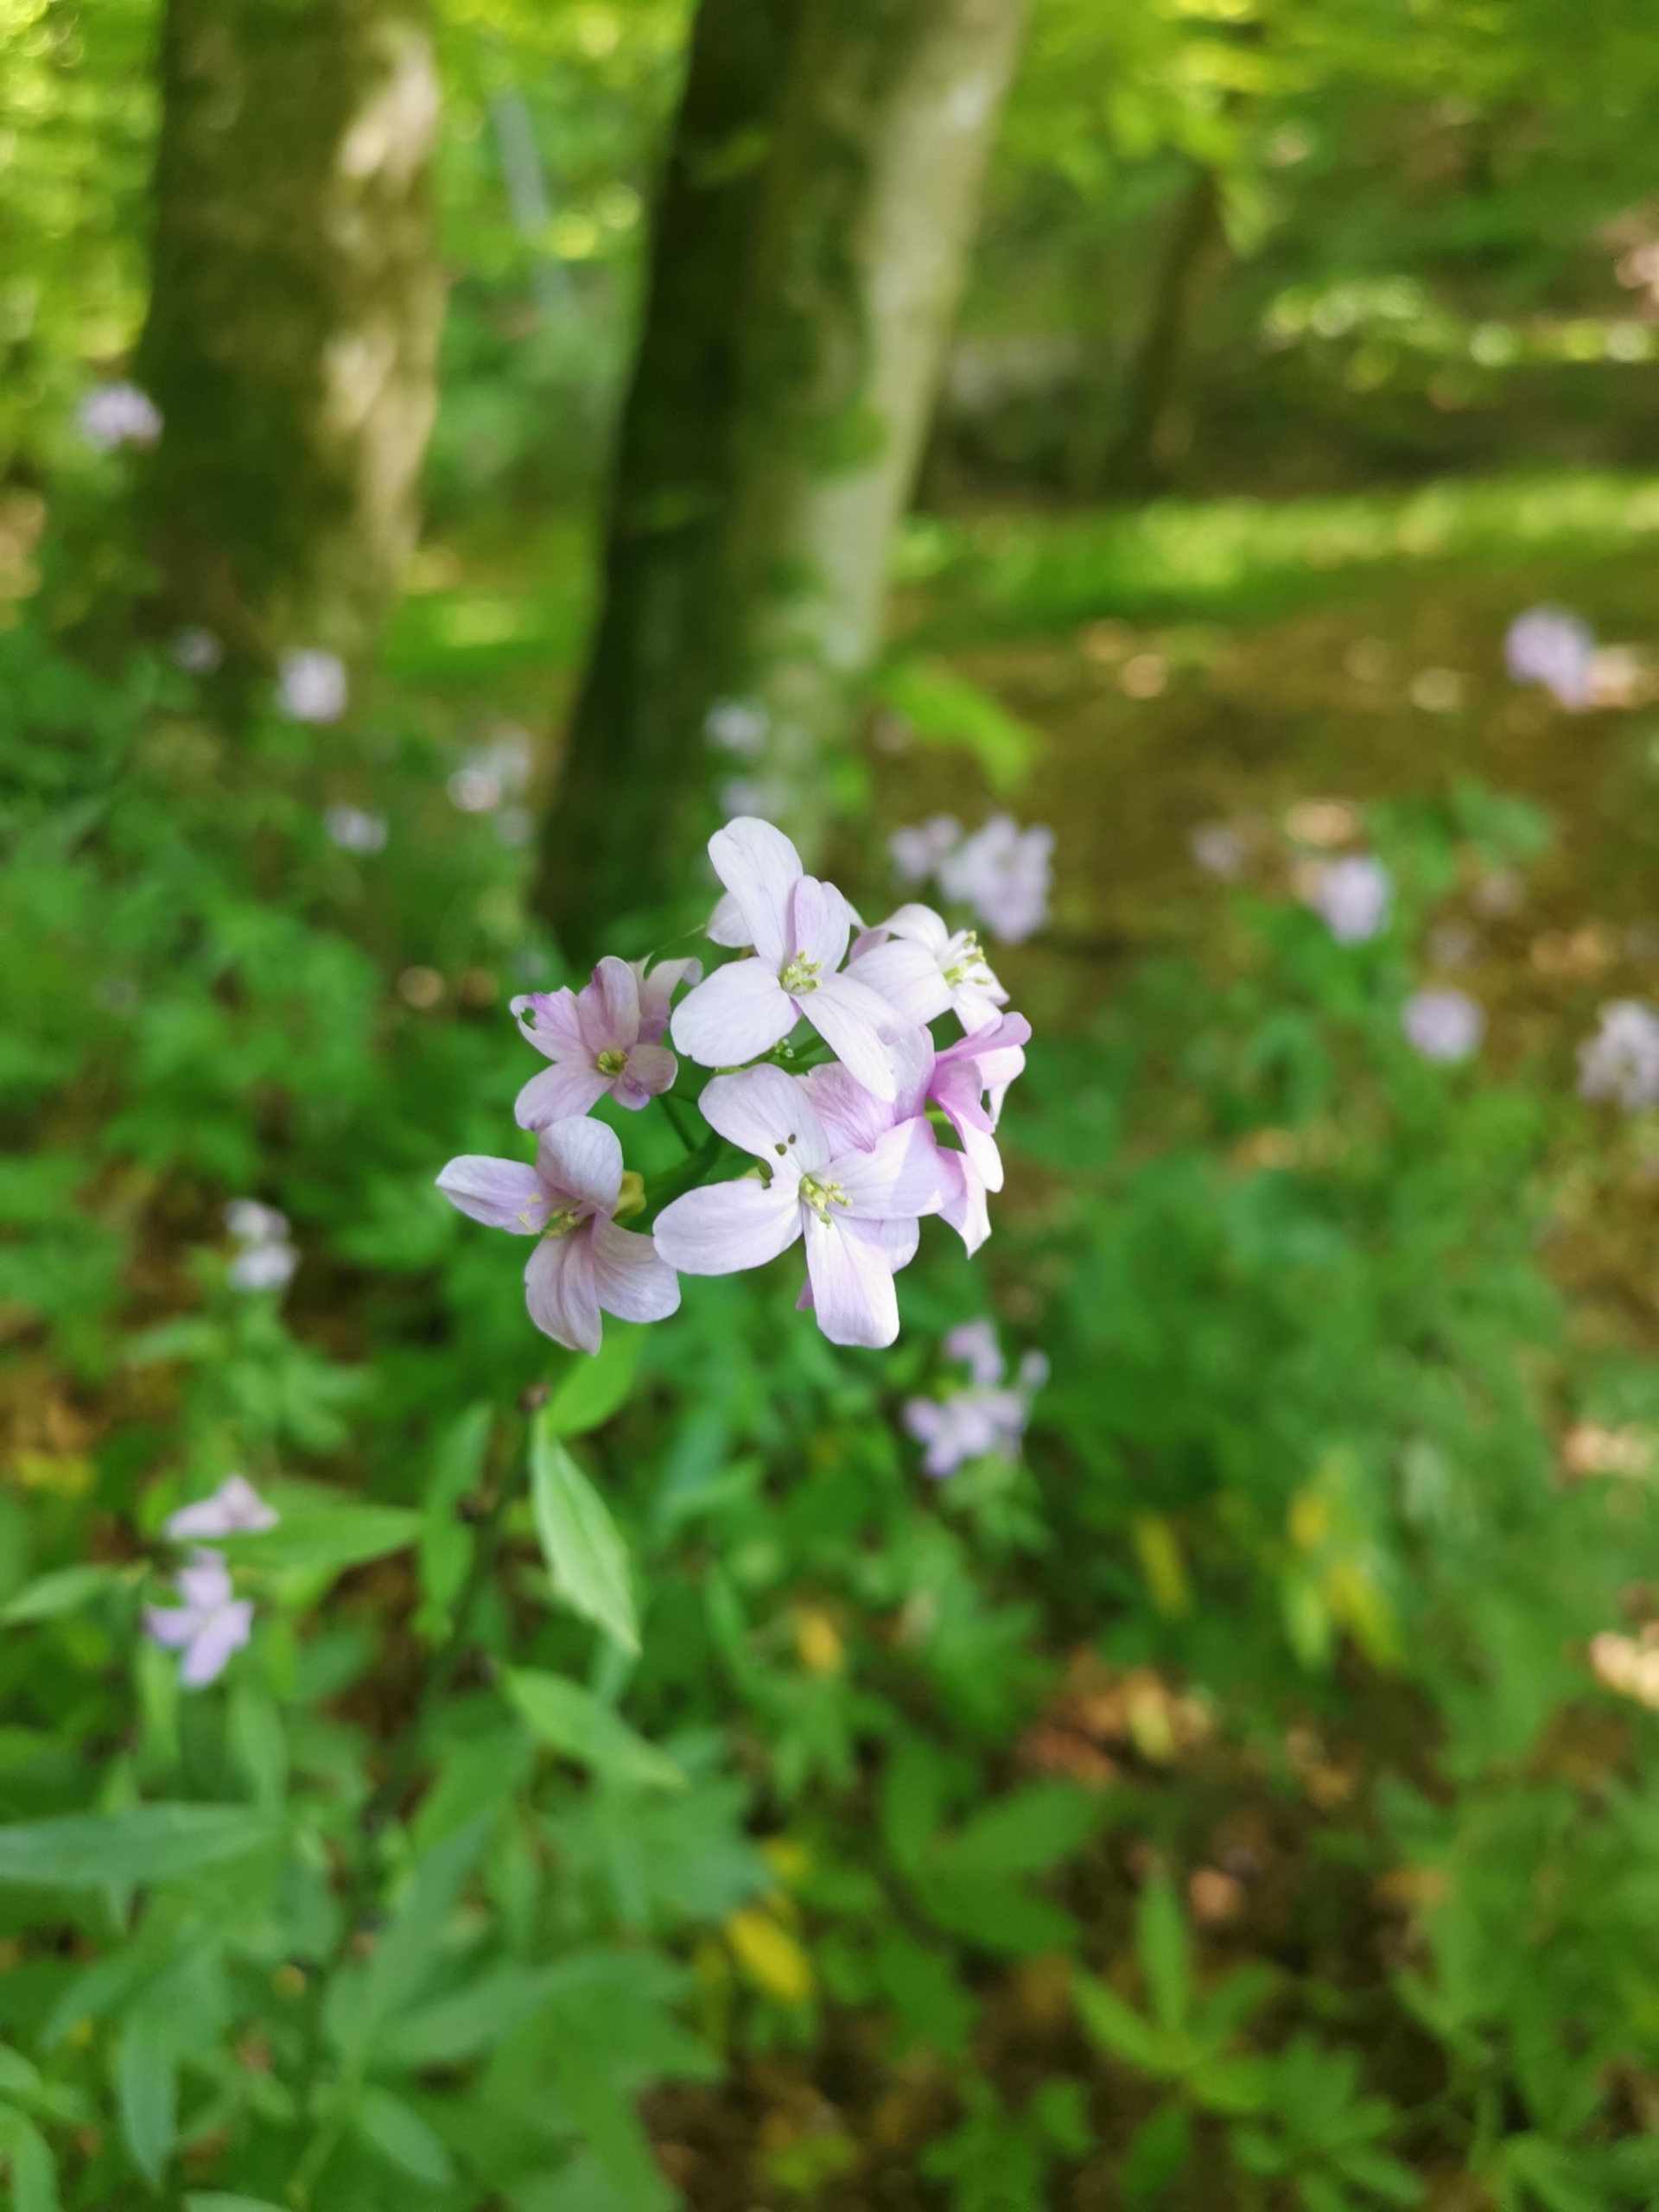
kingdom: Plantae
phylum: Tracheophyta
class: Magnoliopsida
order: Brassicales
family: Brassicaceae
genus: Cardamine
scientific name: Cardamine bulbifera
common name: Tandrod
